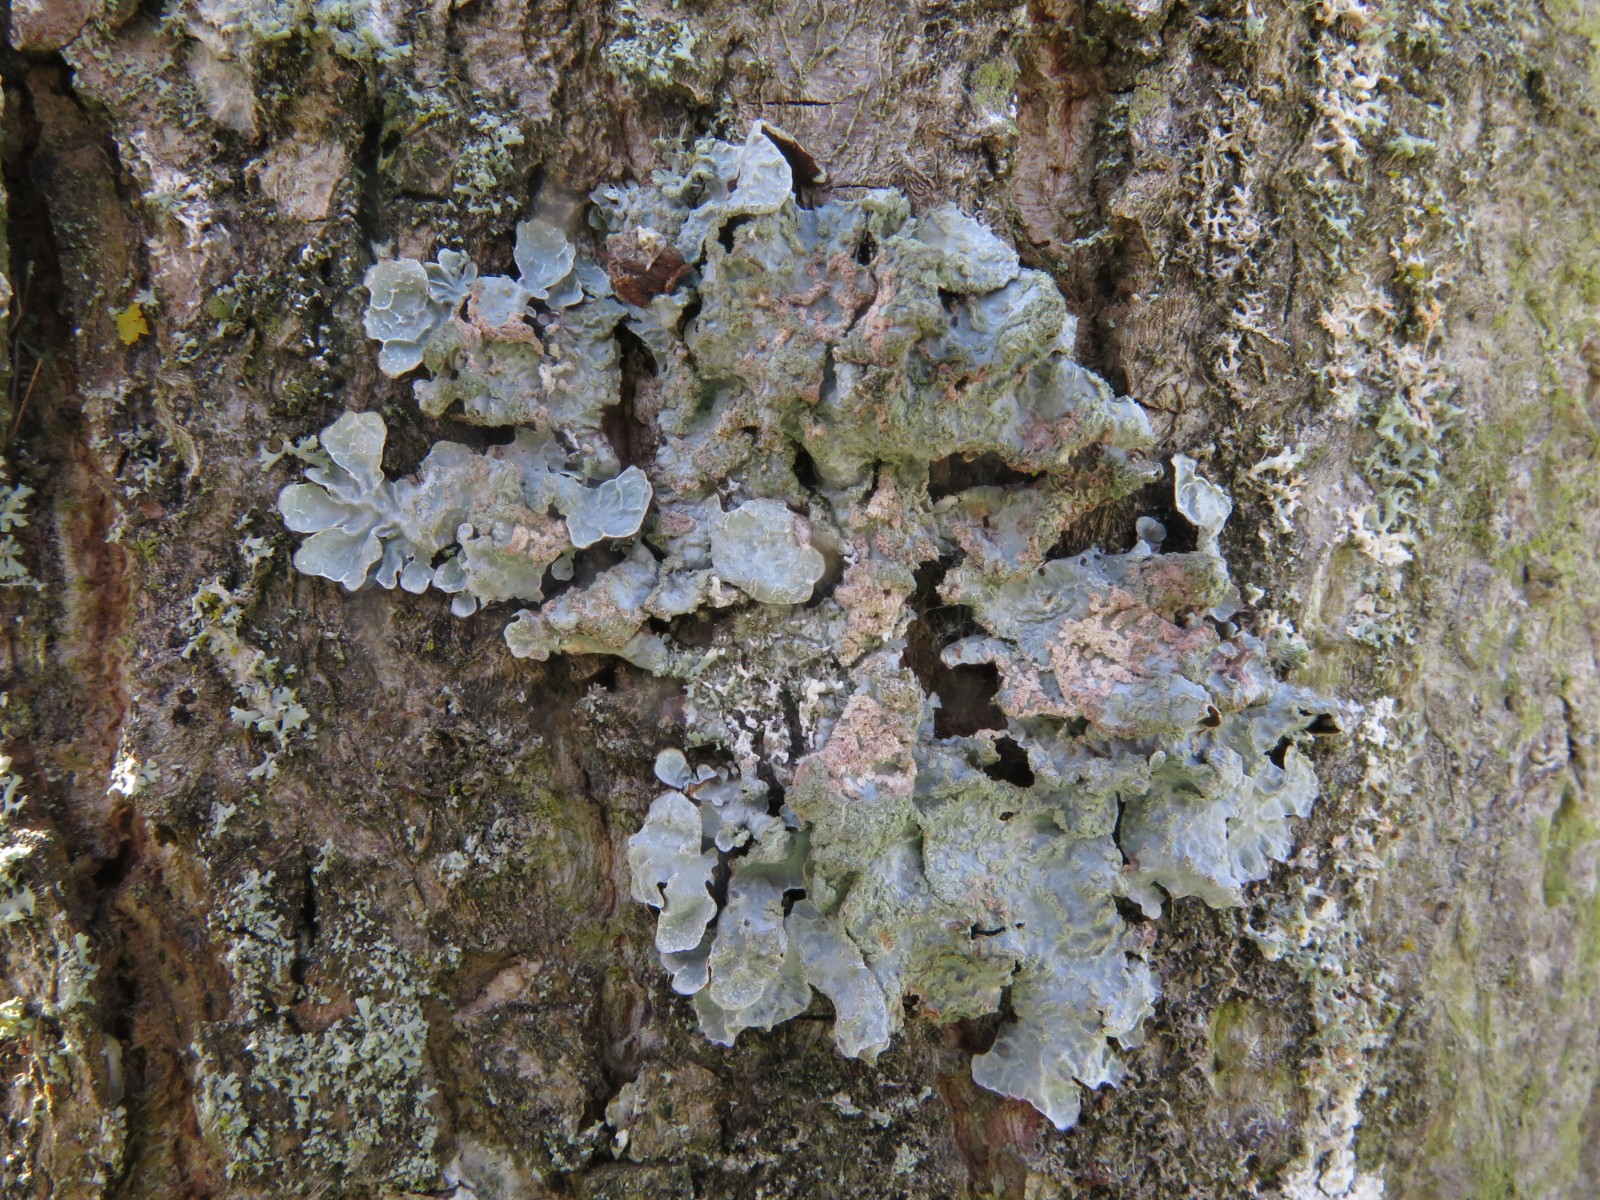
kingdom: Fungi
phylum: Ascomycota
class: Lecanoromycetes
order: Lecanorales
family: Parmeliaceae
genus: Parmelia
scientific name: Parmelia sulcata
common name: rynket skållav
